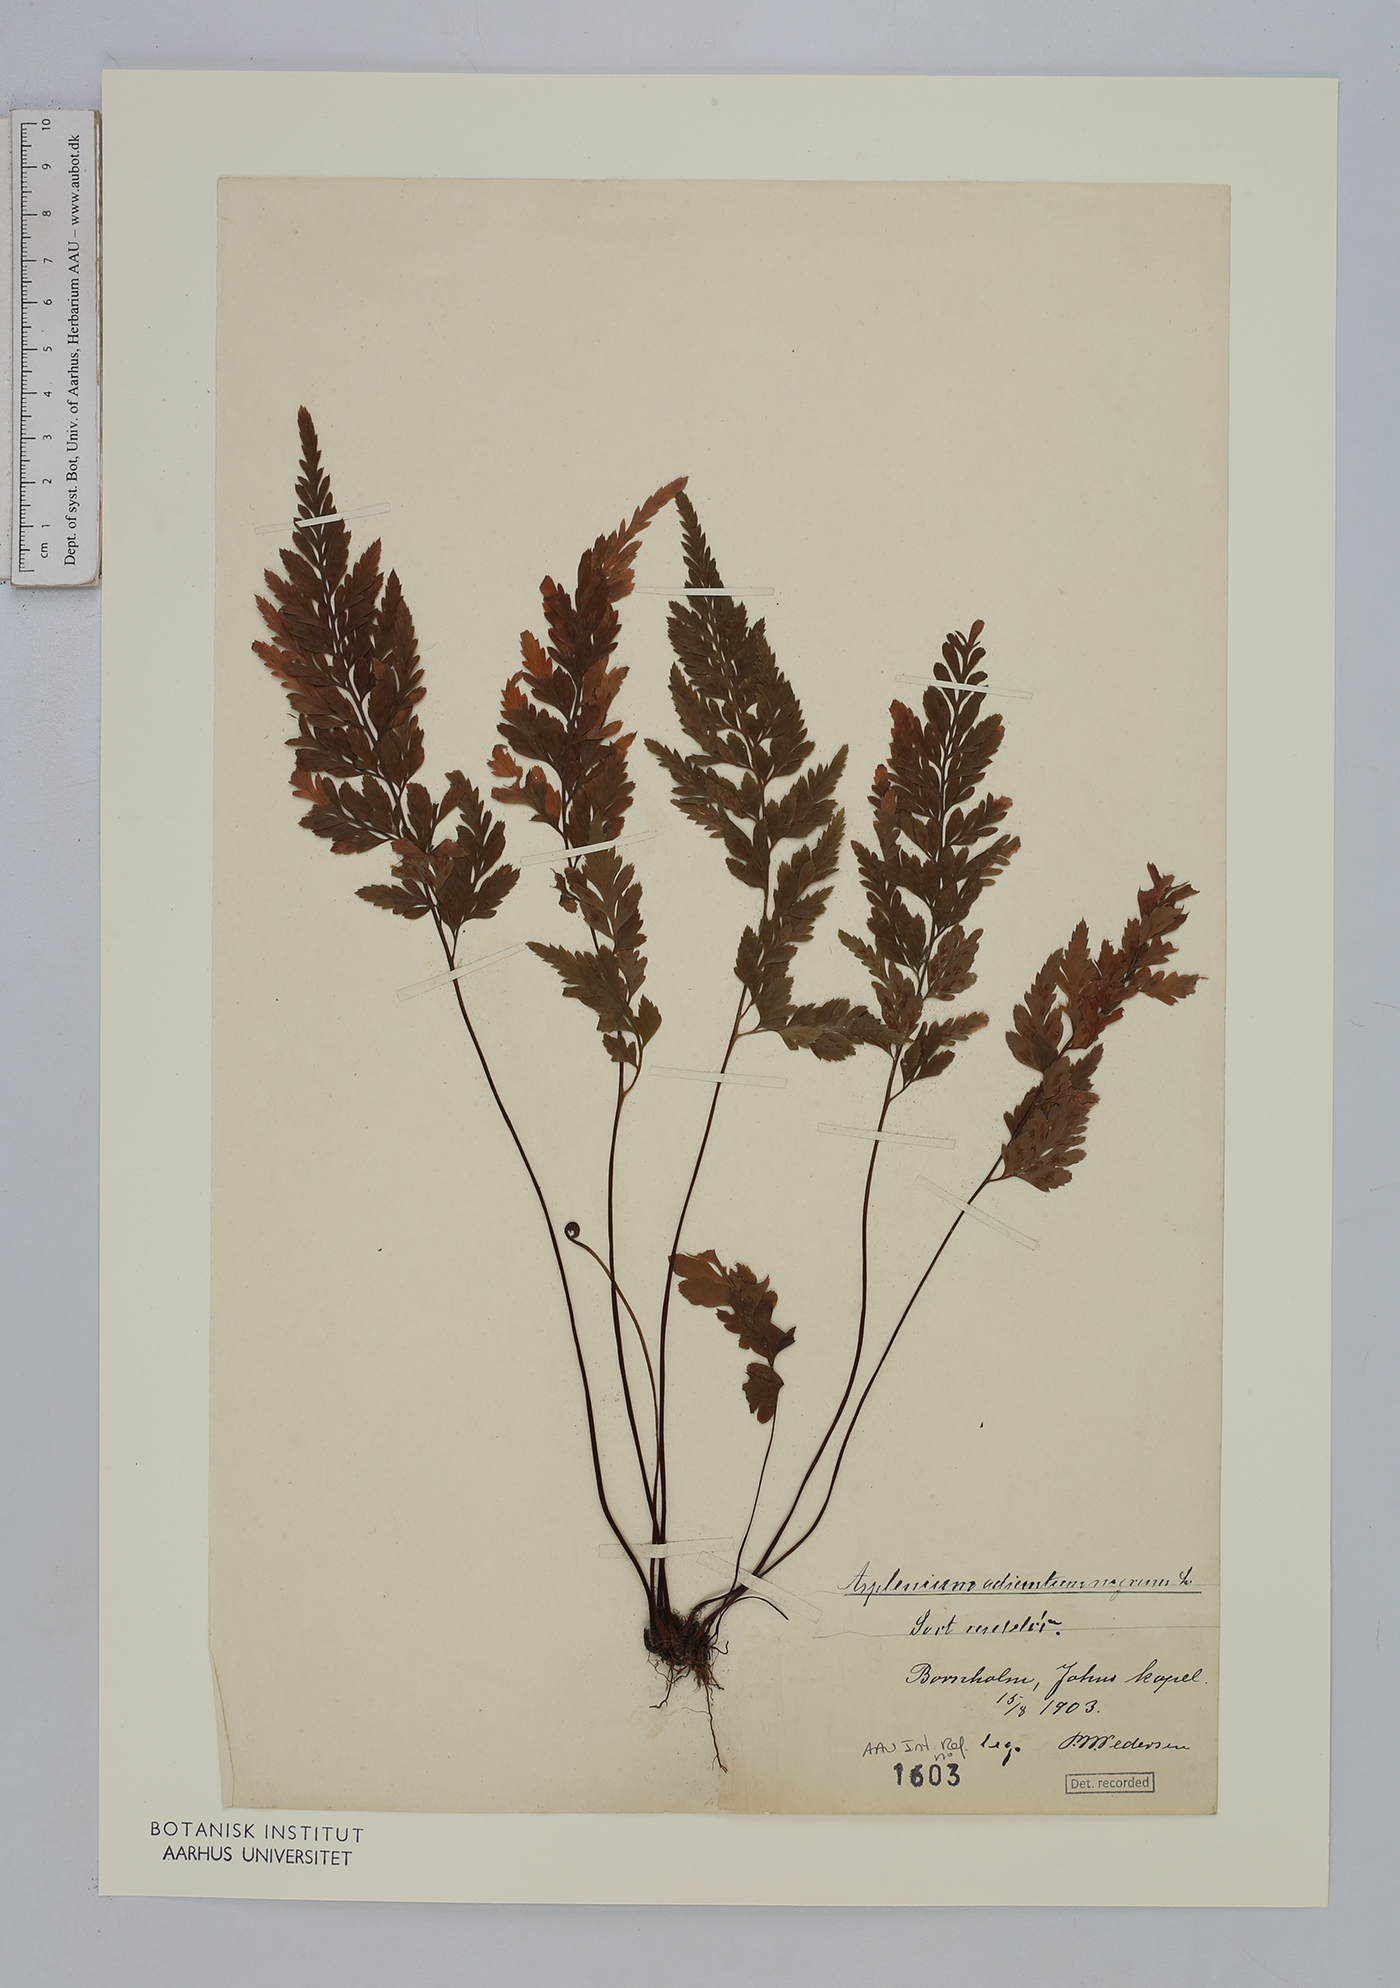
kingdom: Plantae
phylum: Tracheophyta
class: Polypodiopsida
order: Polypodiales
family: Aspleniaceae
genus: Asplenium
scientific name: Asplenium adiantum-nigrum
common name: Black spleenwort
